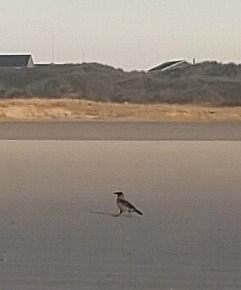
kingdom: Animalia
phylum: Chordata
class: Aves
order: Passeriformes
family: Corvidae
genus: Corvus
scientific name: Corvus cornix
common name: Gråkrage
